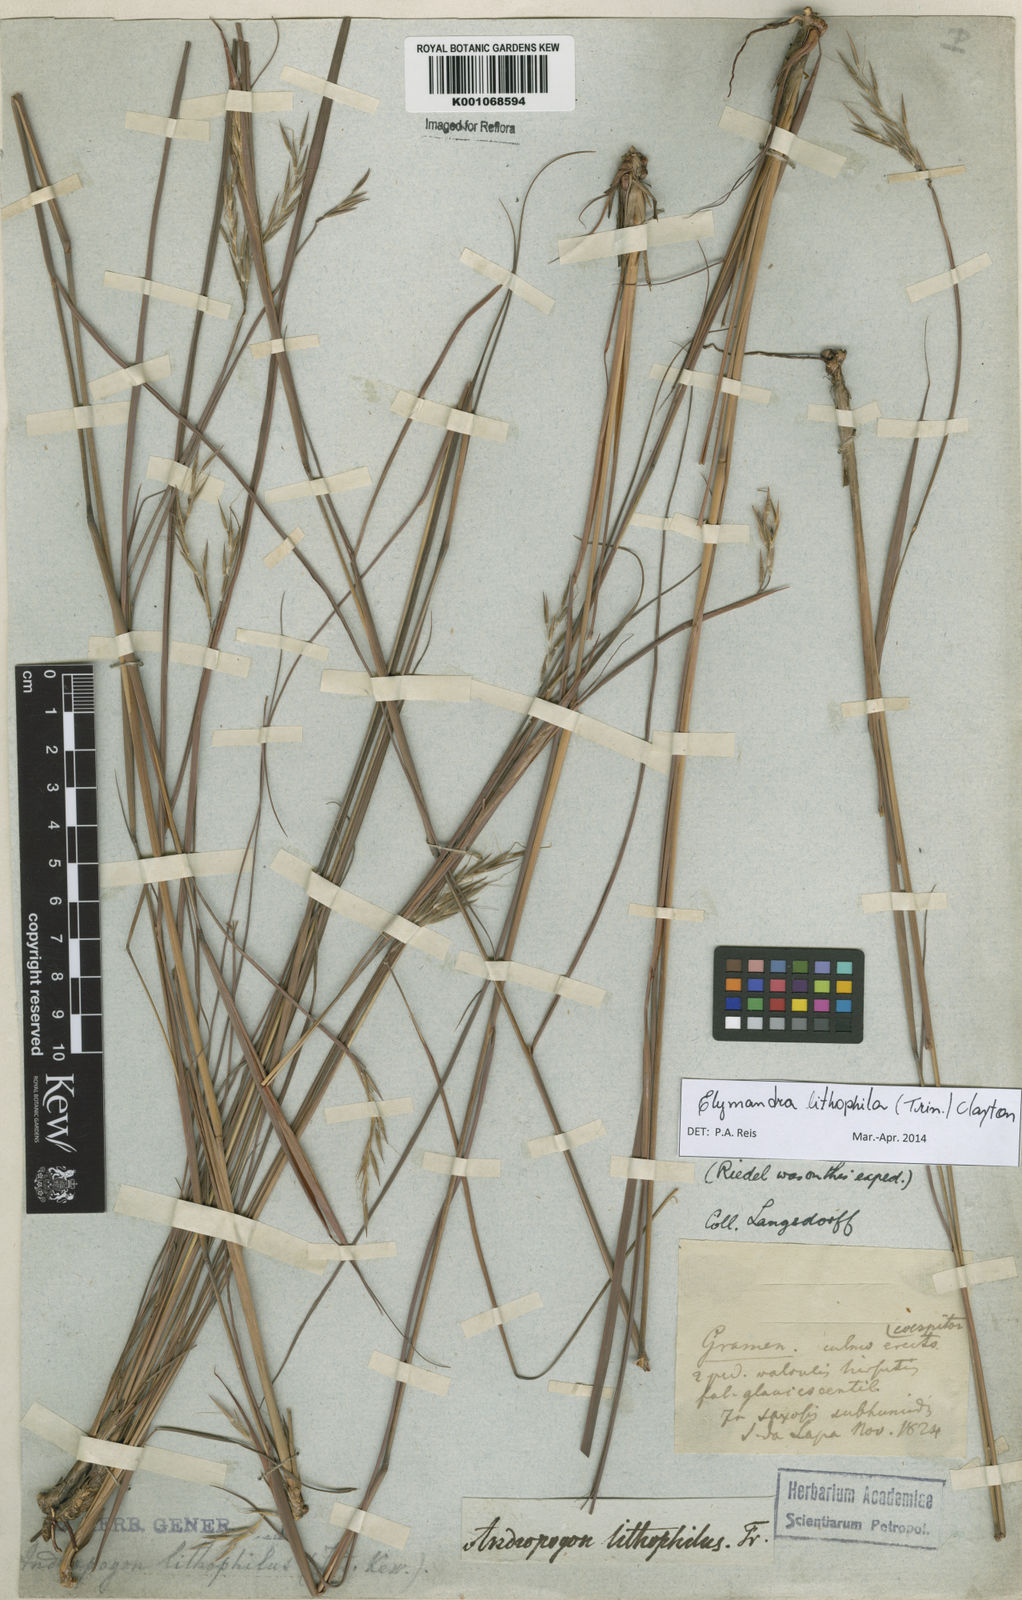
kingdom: Plantae
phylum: Tracheophyta
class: Liliopsida
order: Poales
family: Poaceae
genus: Elymandra
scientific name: Elymandra lithophila
